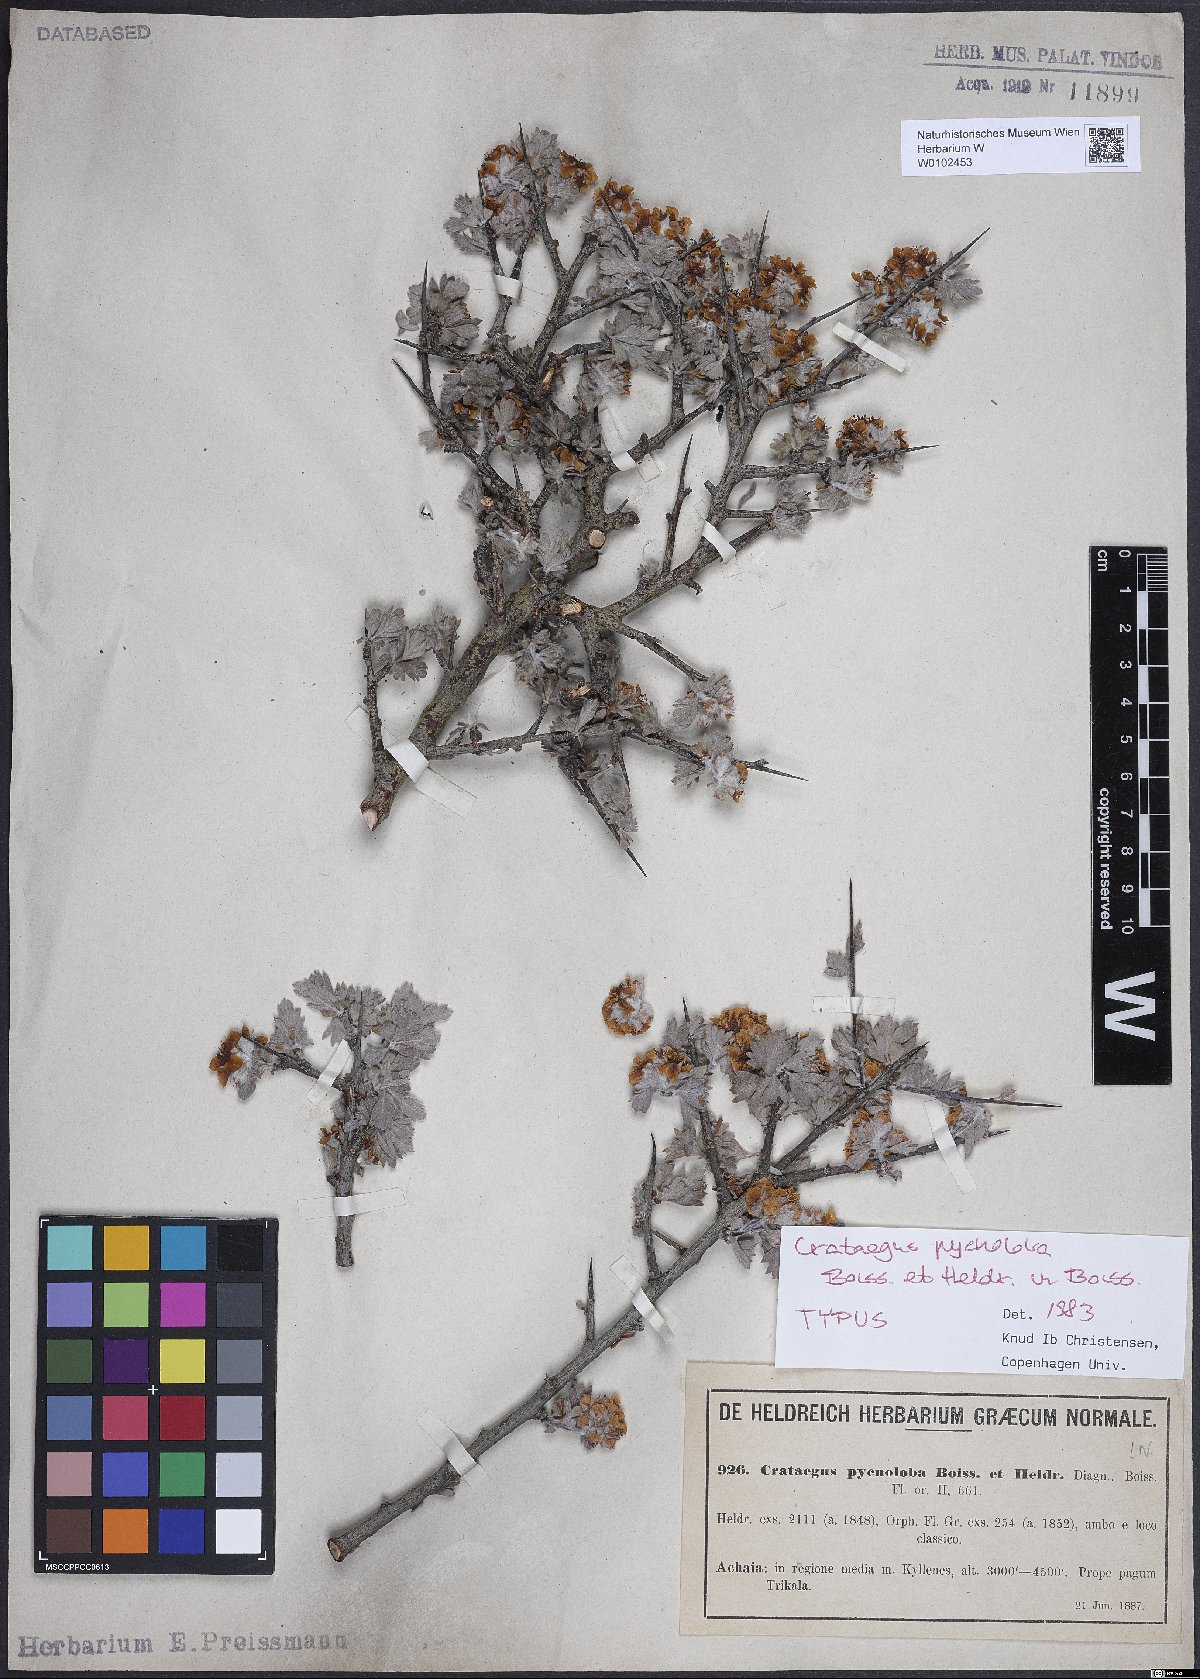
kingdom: Plantae
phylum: Tracheophyta
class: Magnoliopsida
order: Rosales
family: Rosaceae
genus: Crataegus
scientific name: Crataegus pycnoloba
